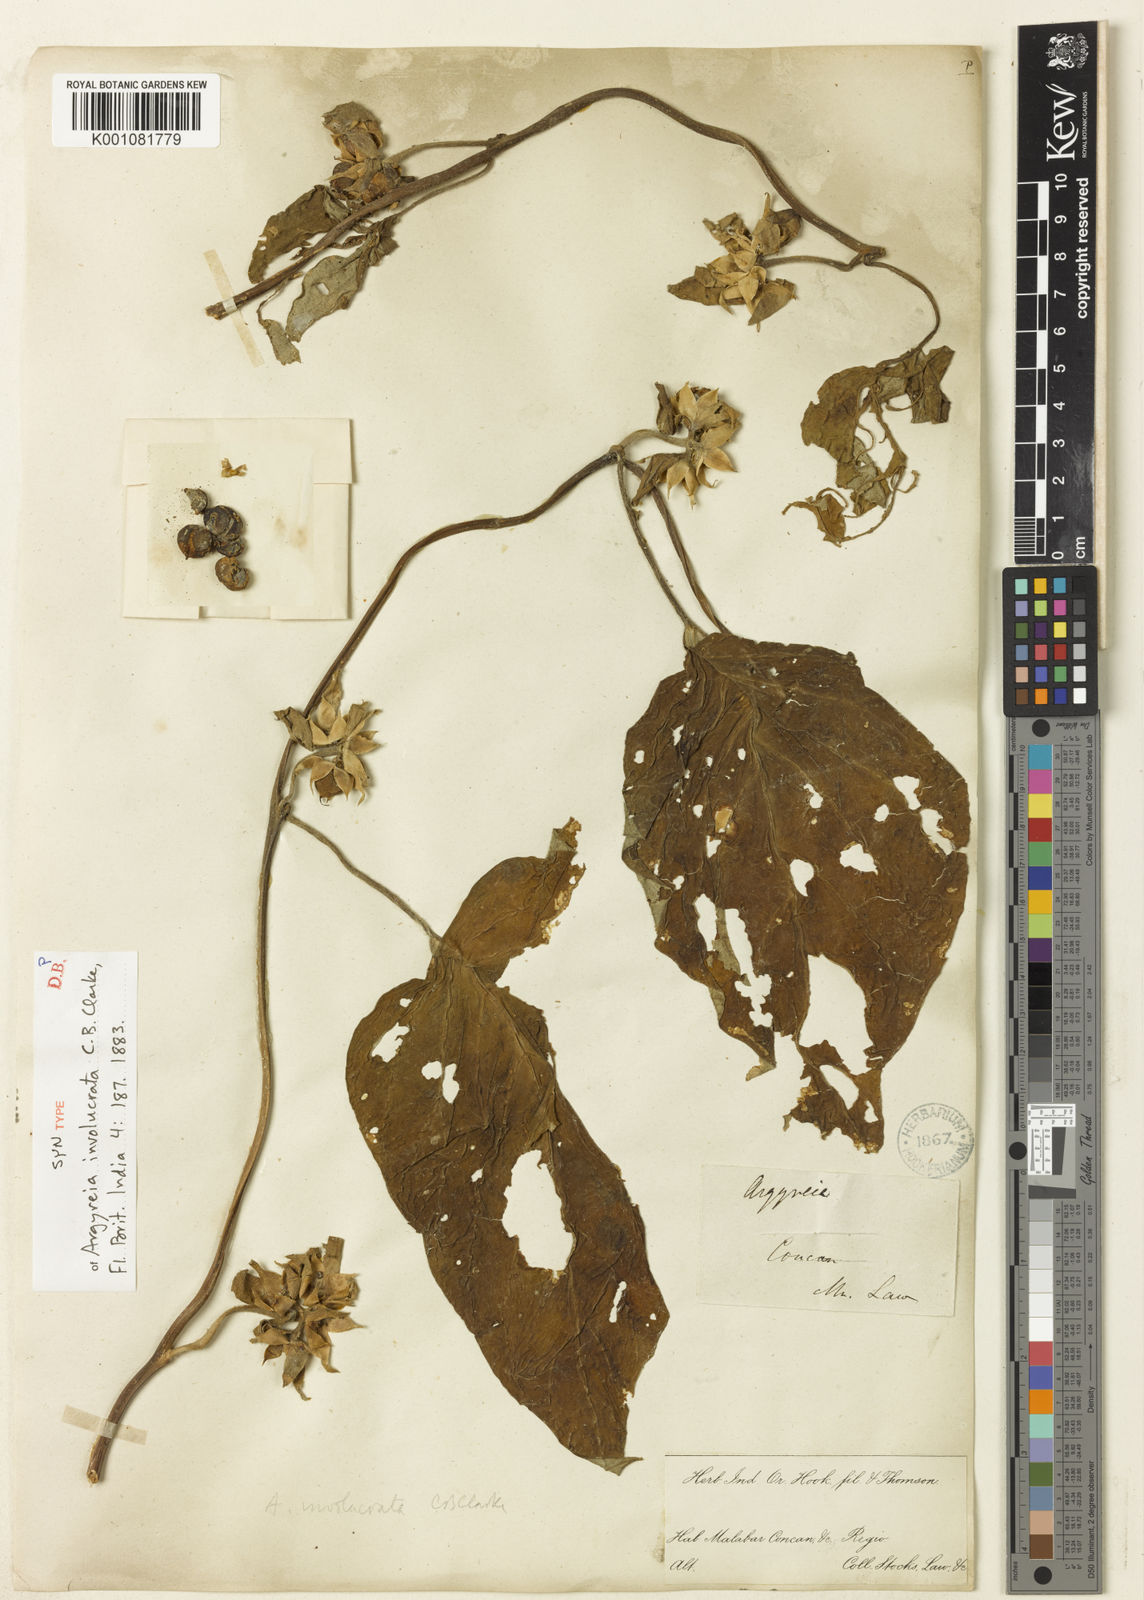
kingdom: Plantae
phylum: Tracheophyta
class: Magnoliopsida
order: Solanales
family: Convolvulaceae
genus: Argyreia
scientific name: Argyreia involucrata
